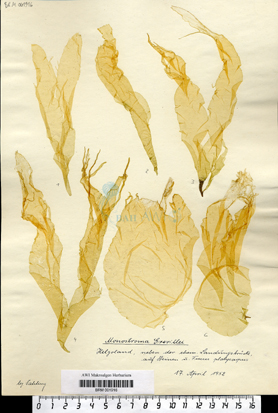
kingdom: Plantae
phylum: Chlorophyta
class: Ulvophyceae
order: Ulvales
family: Monostromataceae
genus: Monostroma
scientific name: Monostroma grevillei
